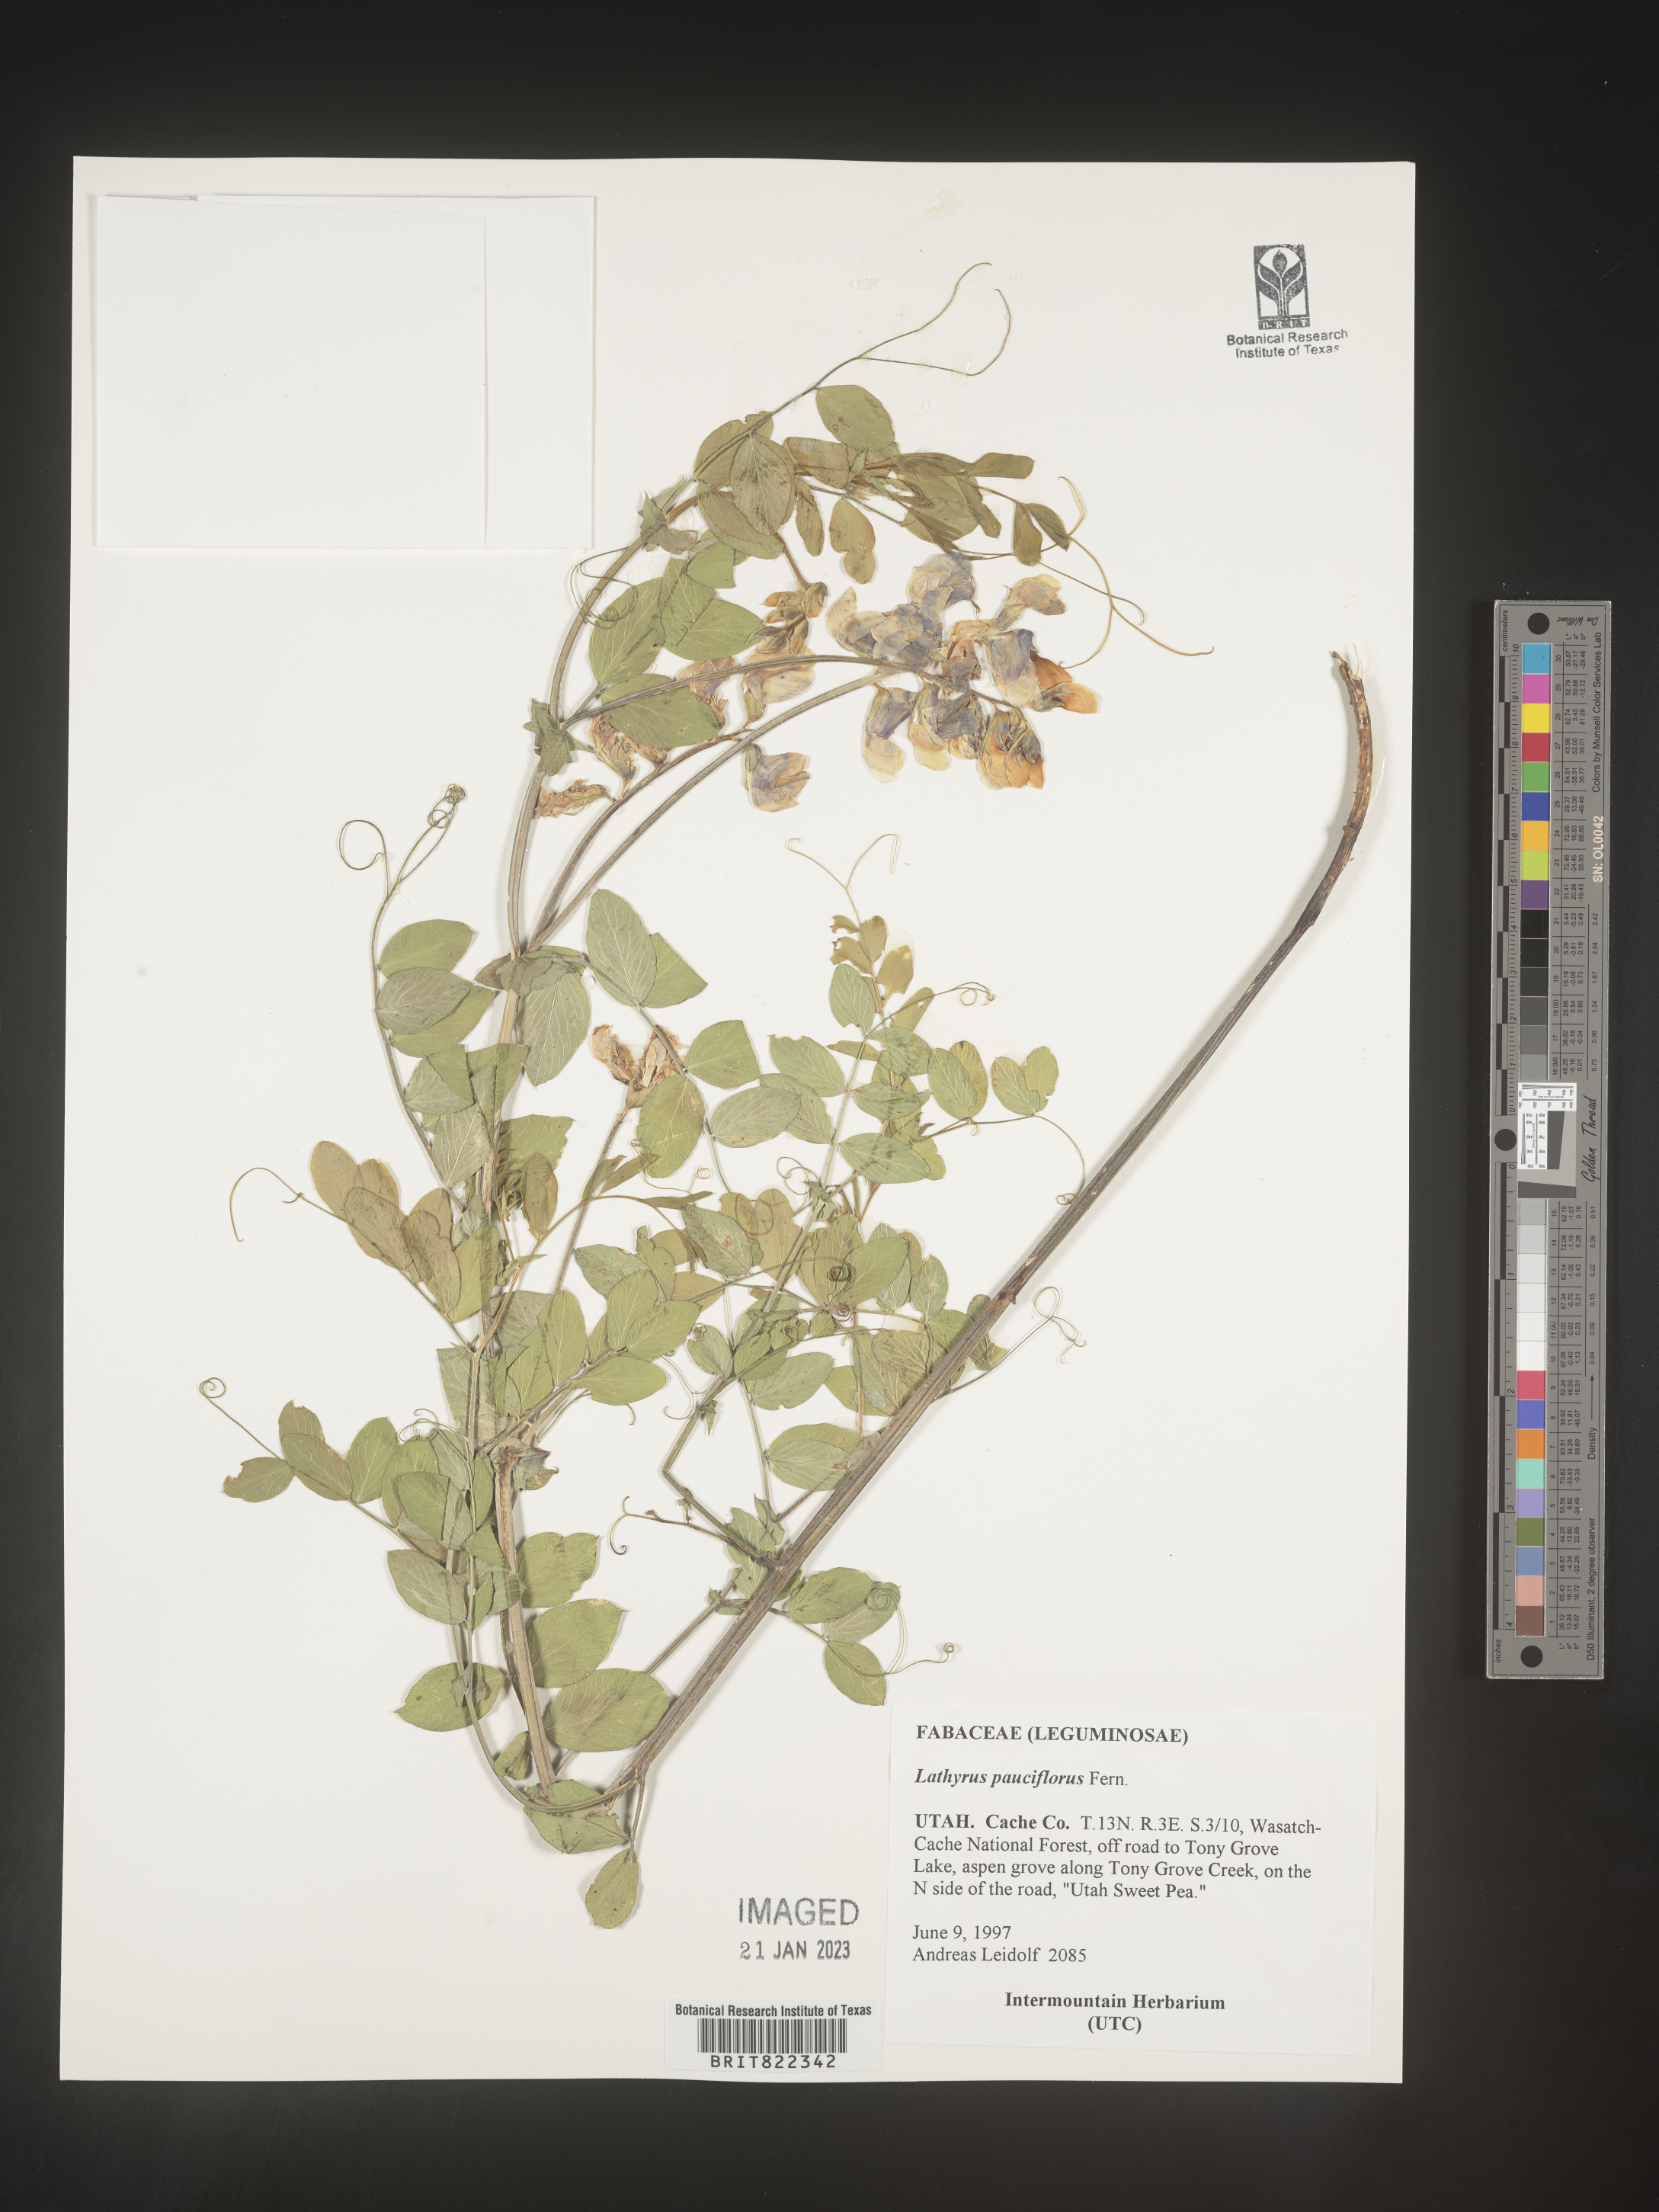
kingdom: Plantae
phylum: Tracheophyta
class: Magnoliopsida
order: Fabales
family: Fabaceae
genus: Lathyrus
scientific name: Lathyrus pauciflorus
